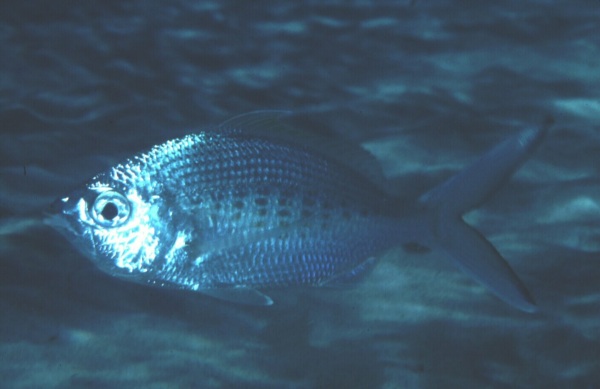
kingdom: Animalia
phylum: Chordata
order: Perciformes
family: Gerreidae
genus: Gerres
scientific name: Gerres oyena
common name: Common silver-biddy
